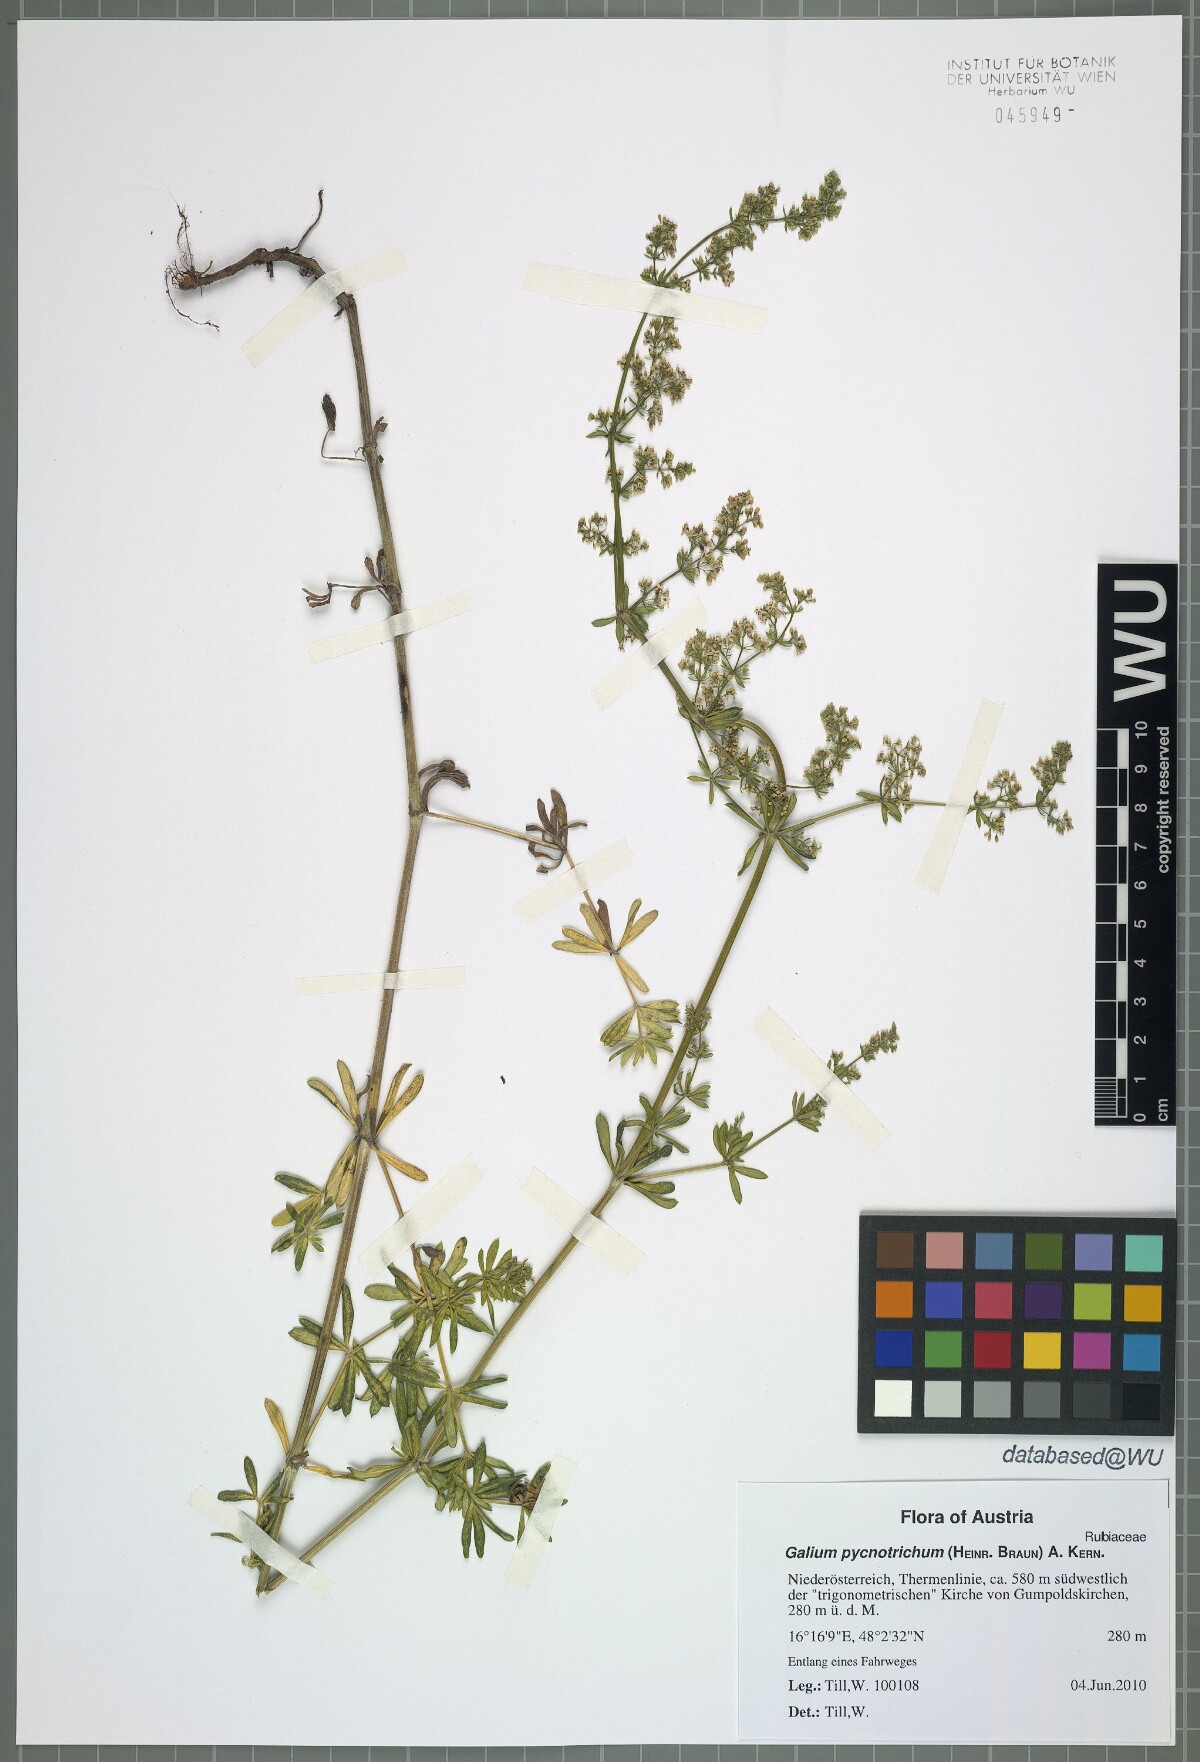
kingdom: Plantae
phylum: Tracheophyta
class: Magnoliopsida
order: Gentianales
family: Rubiaceae
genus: Galium
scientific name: Galium album
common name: White bedstraw
